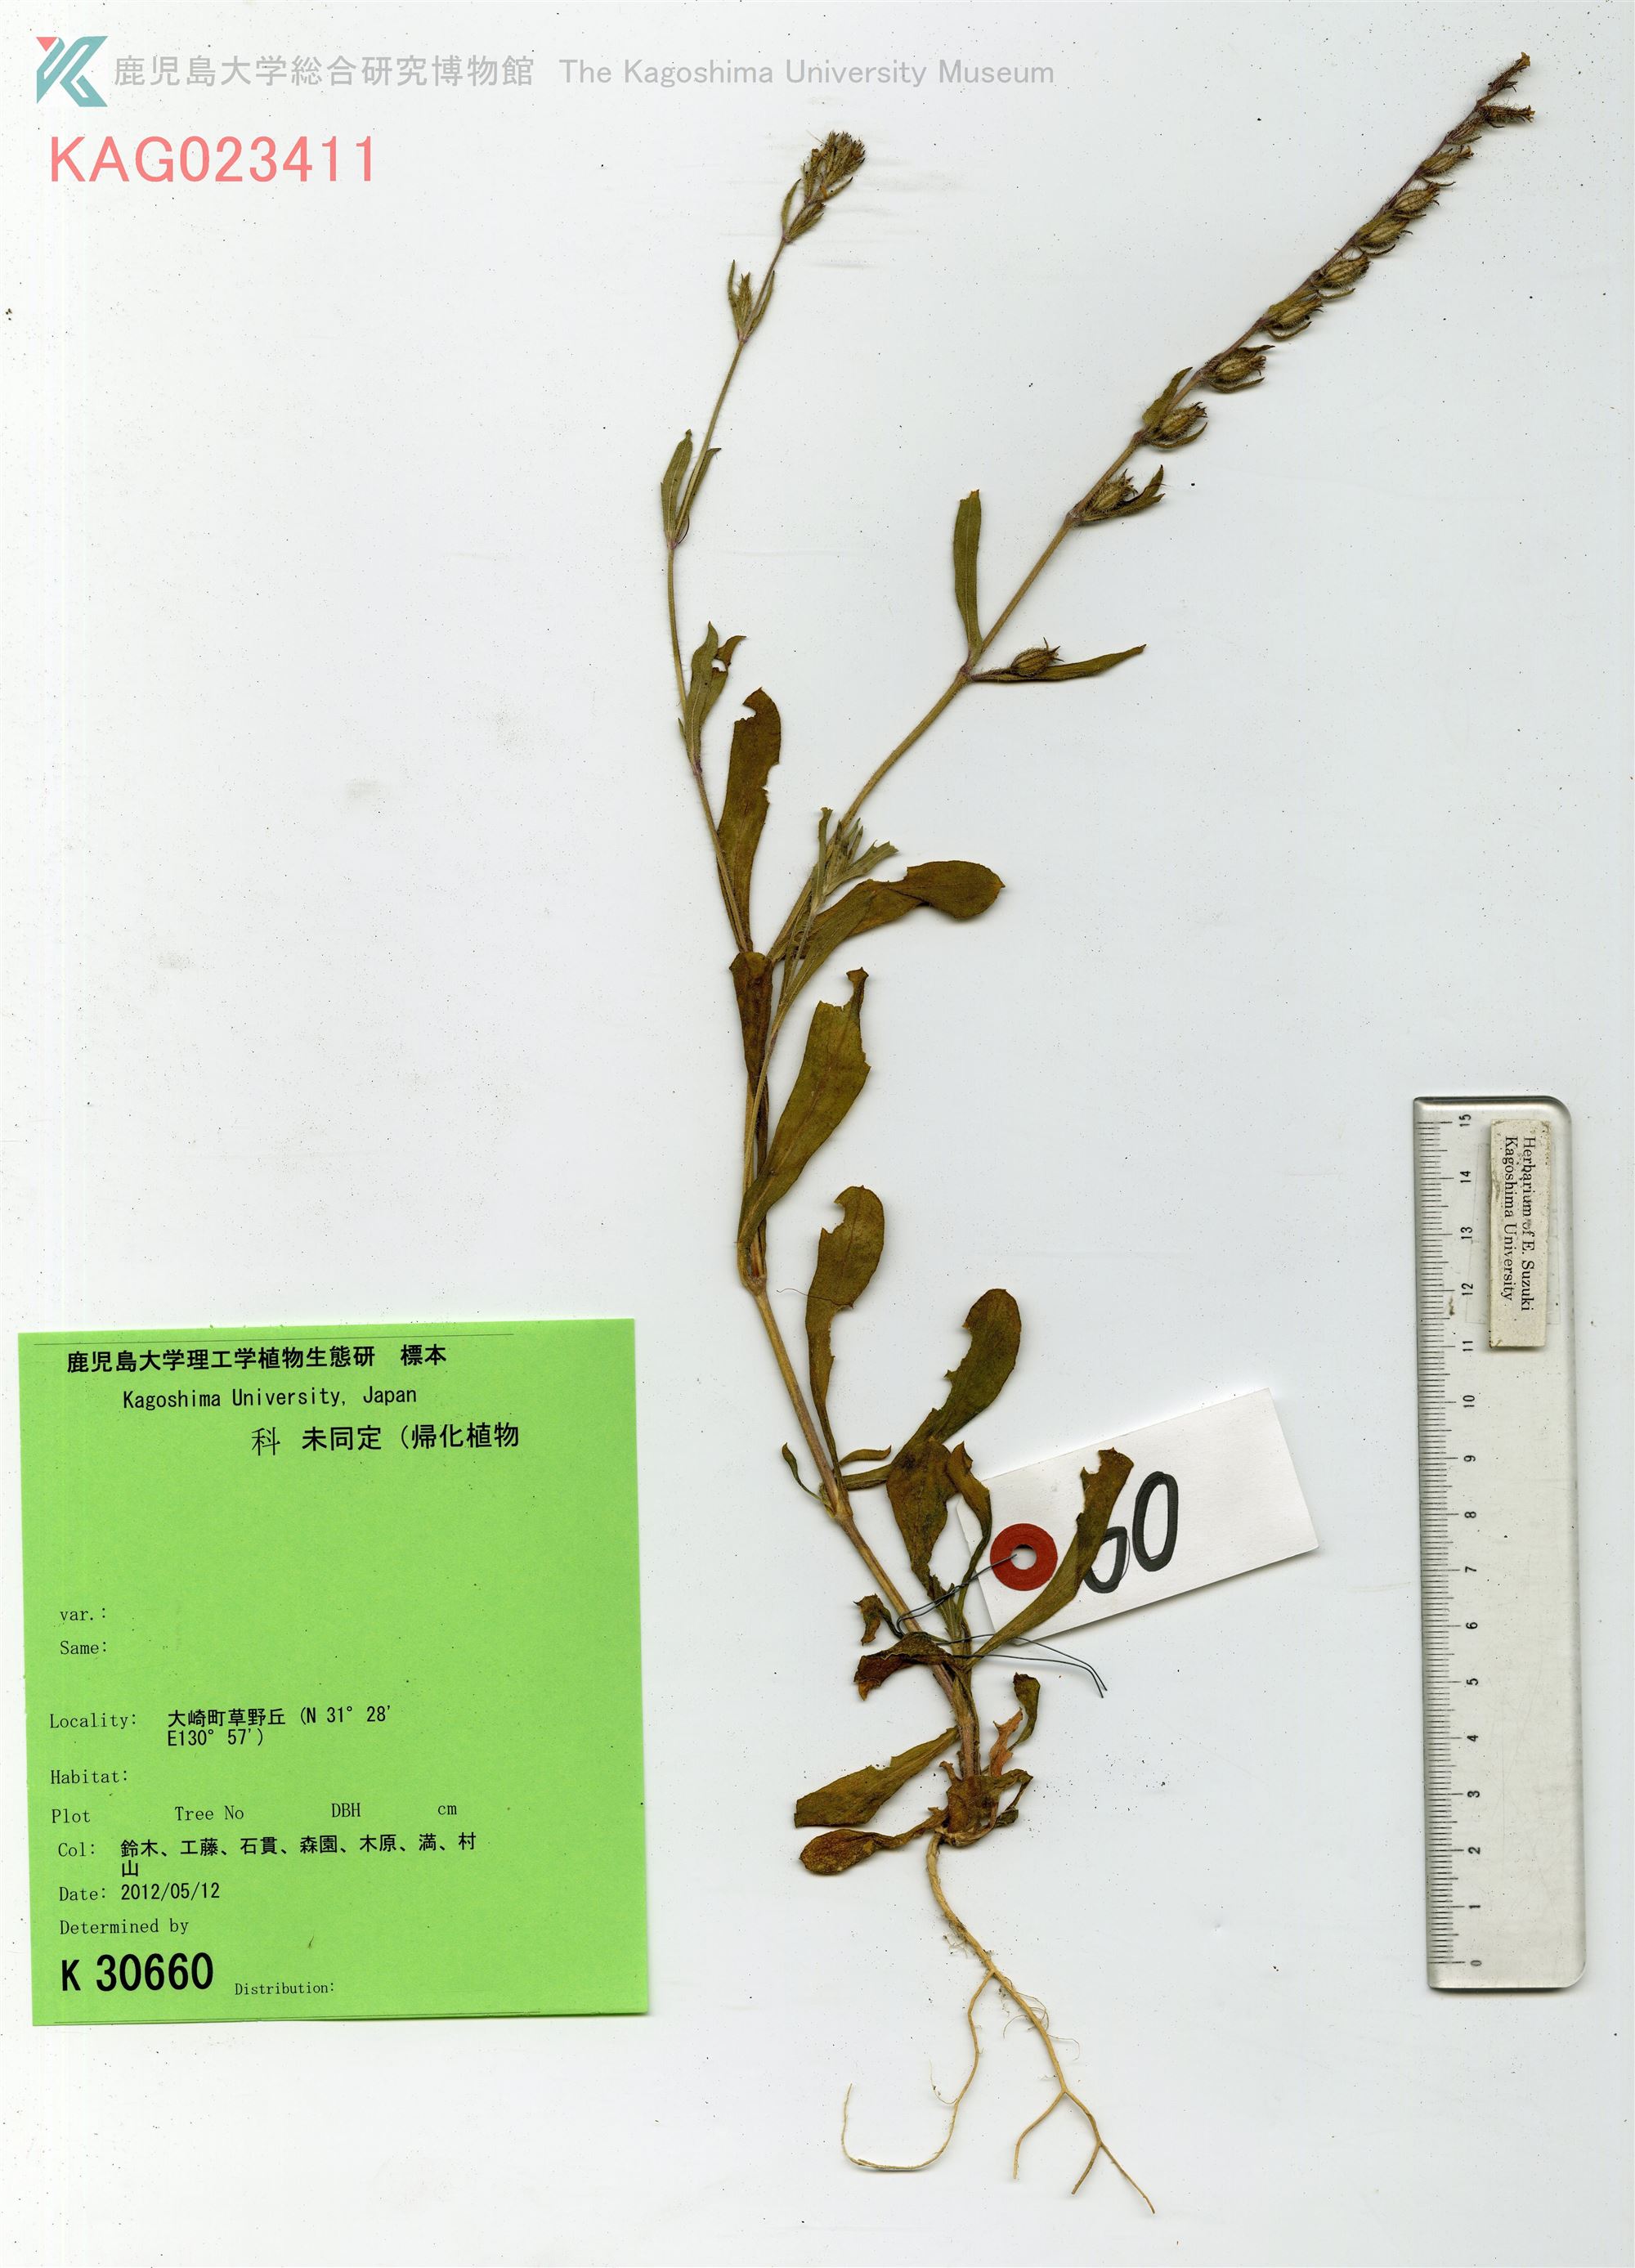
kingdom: Plantae
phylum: Tracheophyta
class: Magnoliopsida
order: Caryophyllales
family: Caryophyllaceae
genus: Silene
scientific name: Silene gallica
